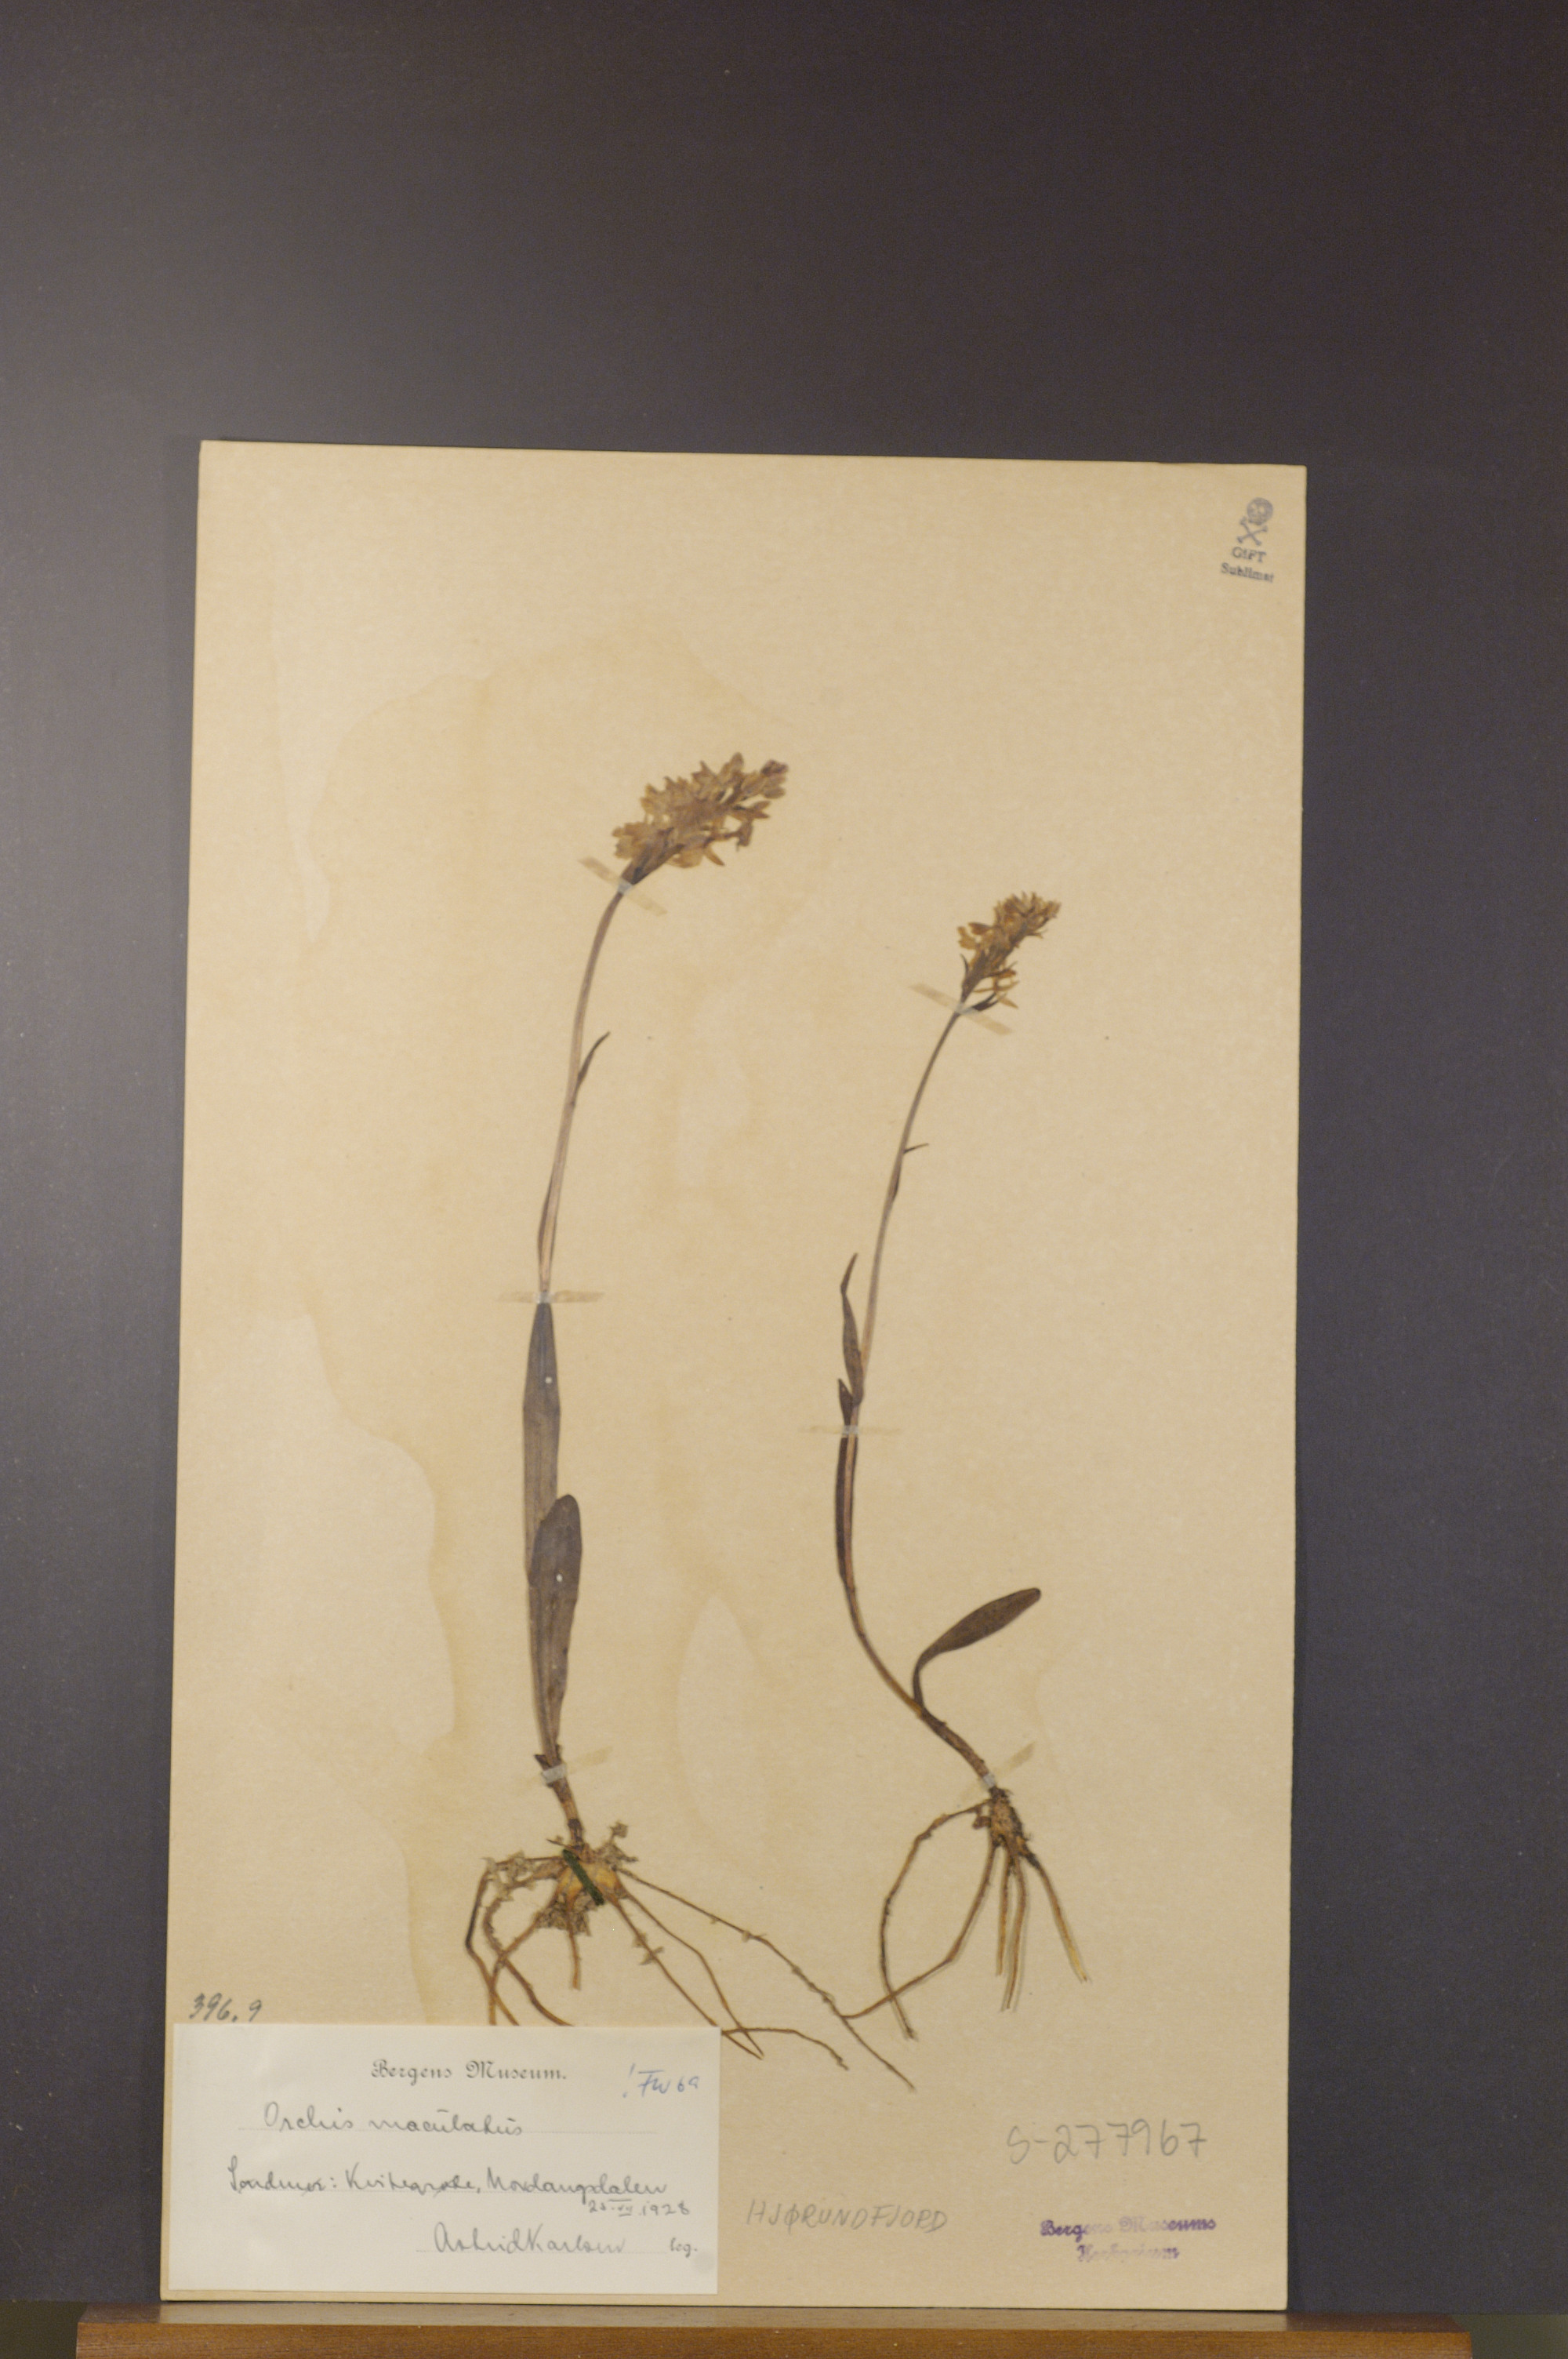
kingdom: Plantae
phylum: Tracheophyta
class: Liliopsida
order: Asparagales
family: Orchidaceae
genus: Dactylorhiza
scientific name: Dactylorhiza maculata
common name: Heath spotted-orchid
